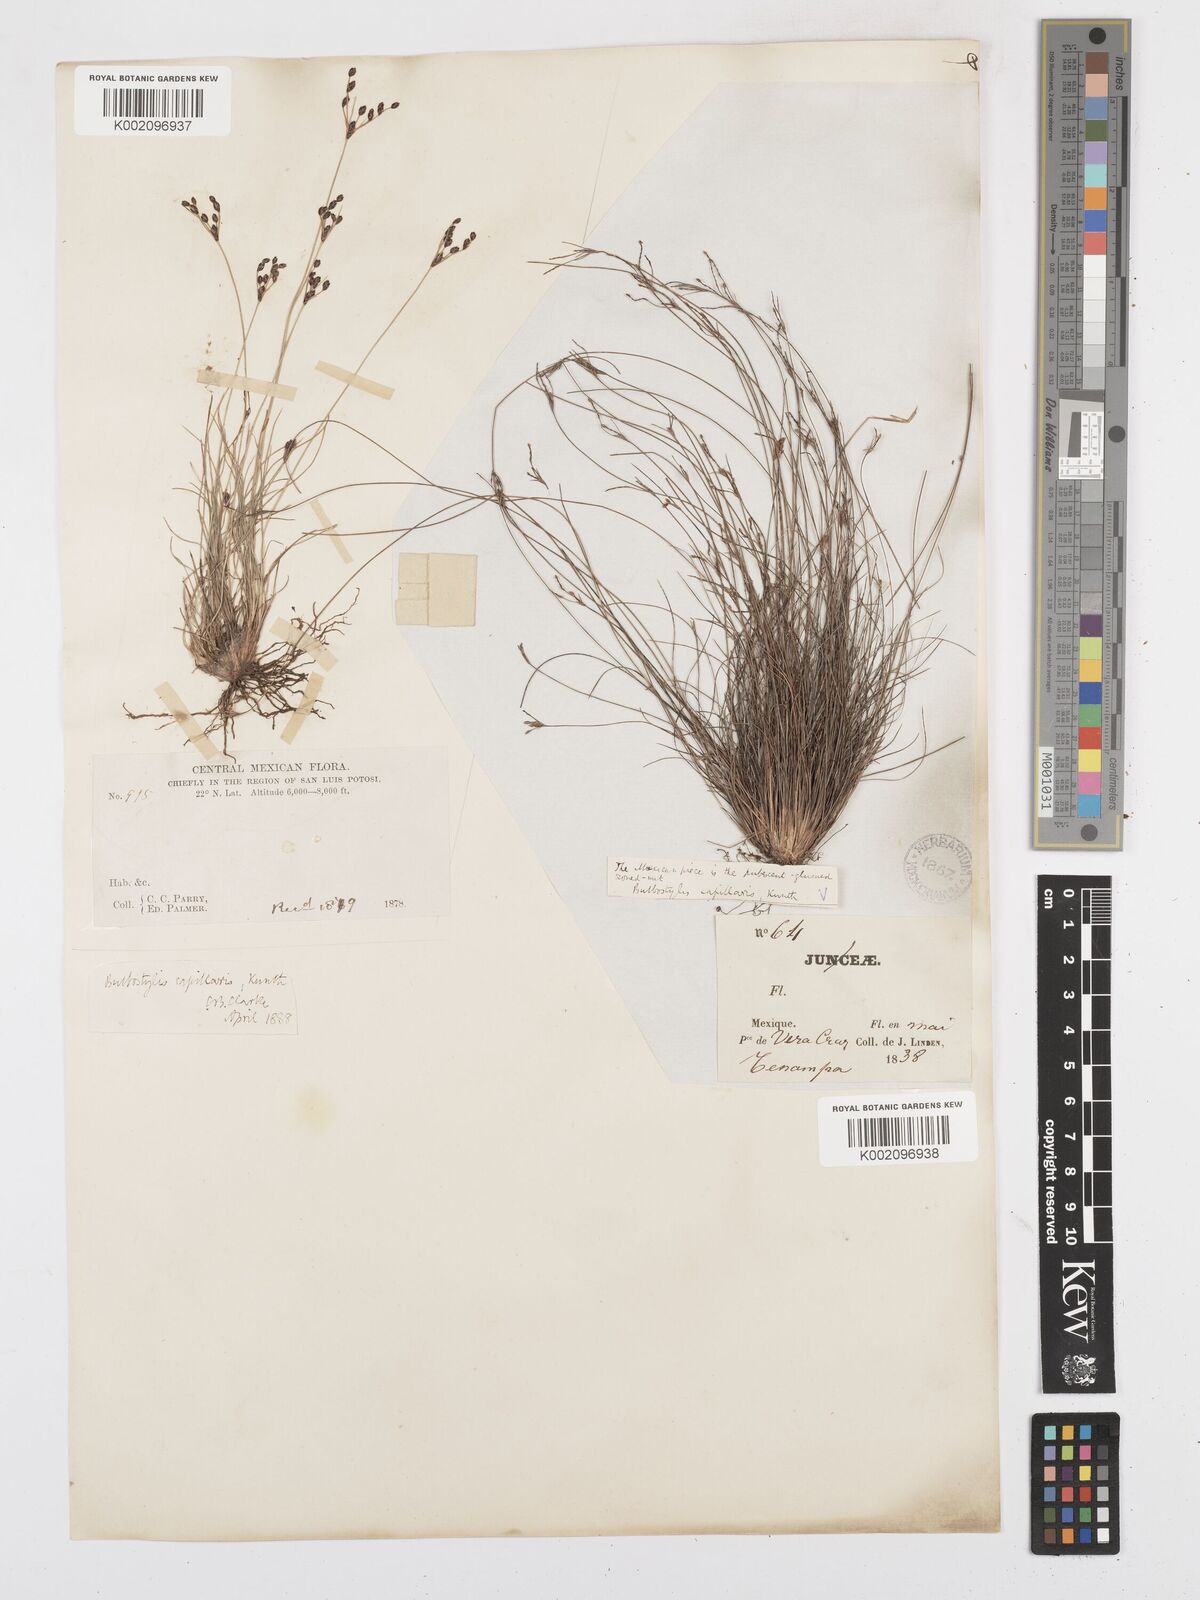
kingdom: Plantae
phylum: Tracheophyta
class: Liliopsida
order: Poales
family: Cyperaceae
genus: Bulbostylis
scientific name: Bulbostylis capillaris
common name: Densetuft hairsedge
